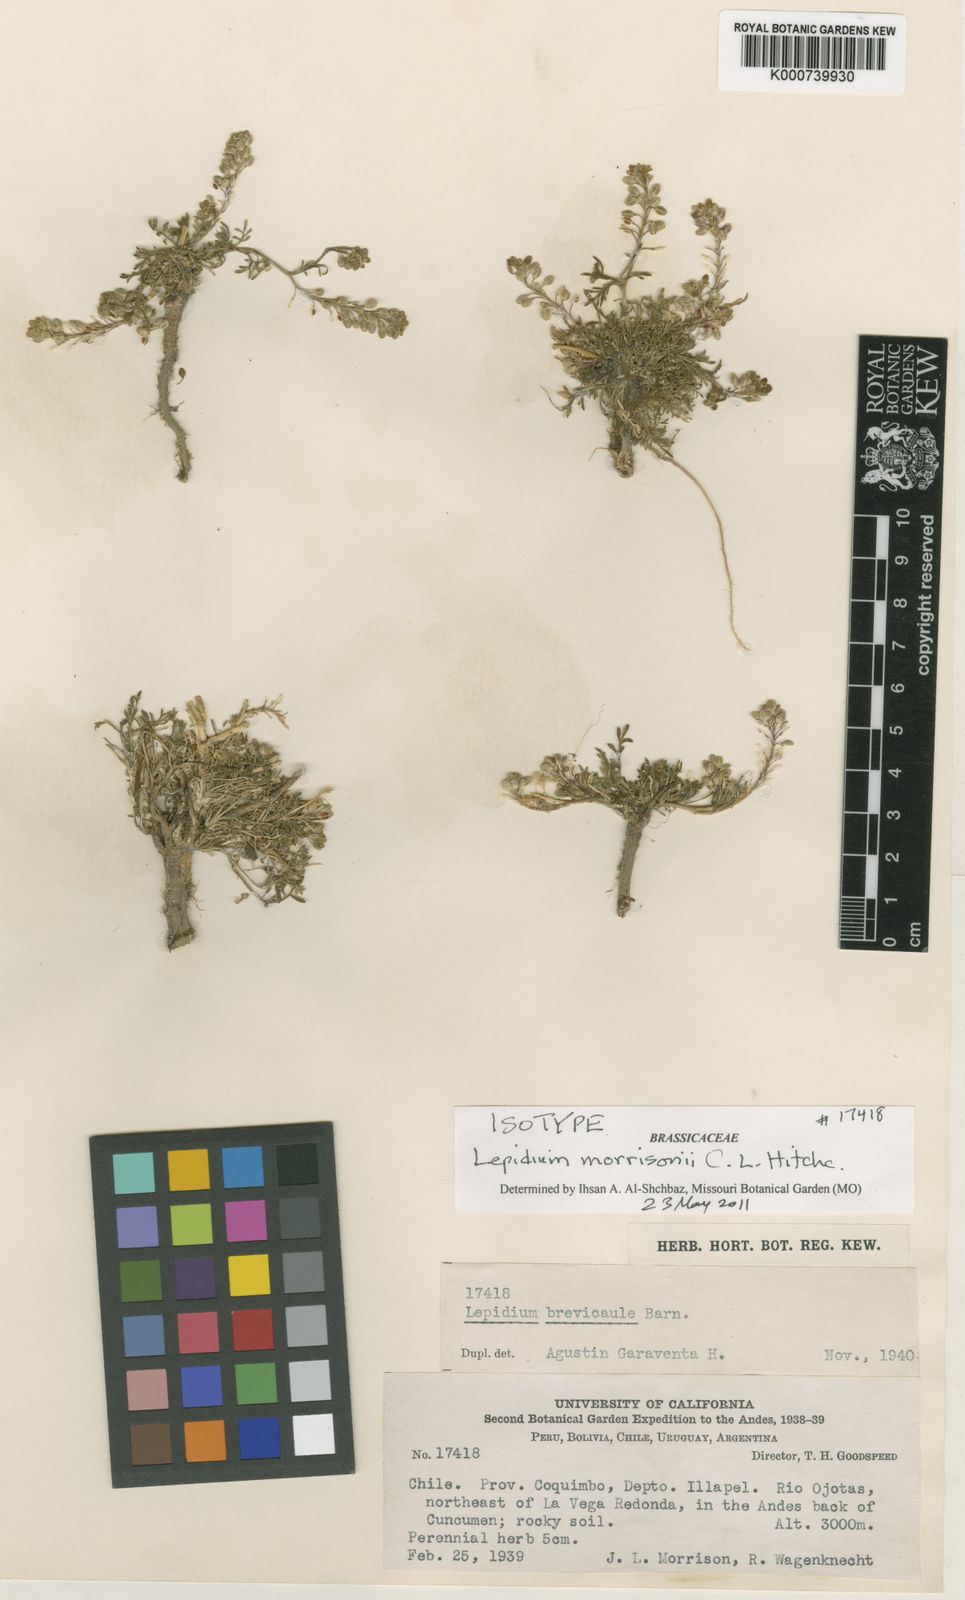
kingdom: Plantae
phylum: Tracheophyta
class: Magnoliopsida
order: Brassicales
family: Brassicaceae
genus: Lepidium
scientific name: Lepidium reichei
